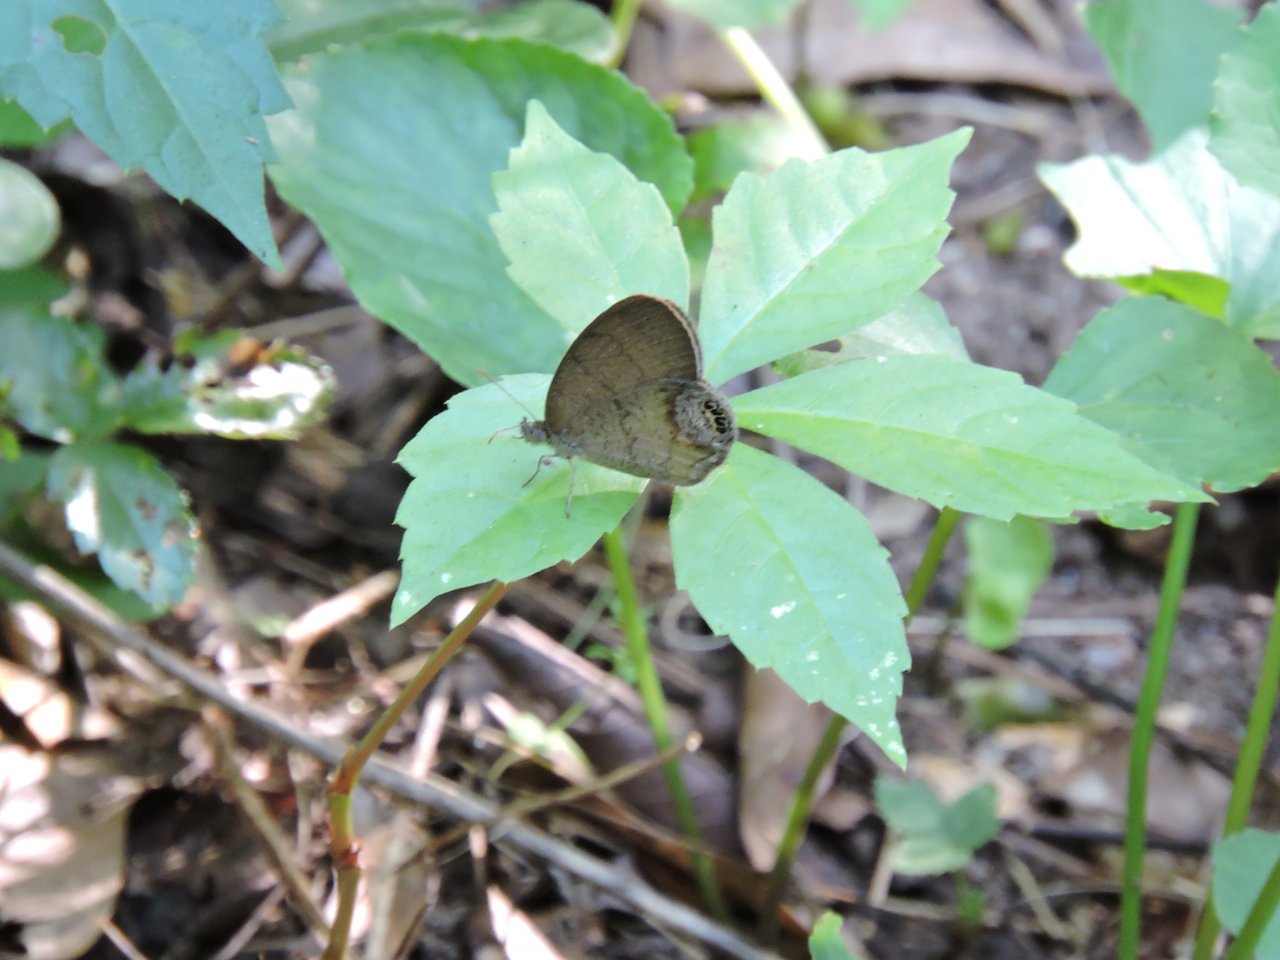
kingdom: Animalia
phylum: Arthropoda
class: Insecta
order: Lepidoptera
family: Nymphalidae
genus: Euptychia
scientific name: Euptychia cornelius
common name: Gemmed Satyr
